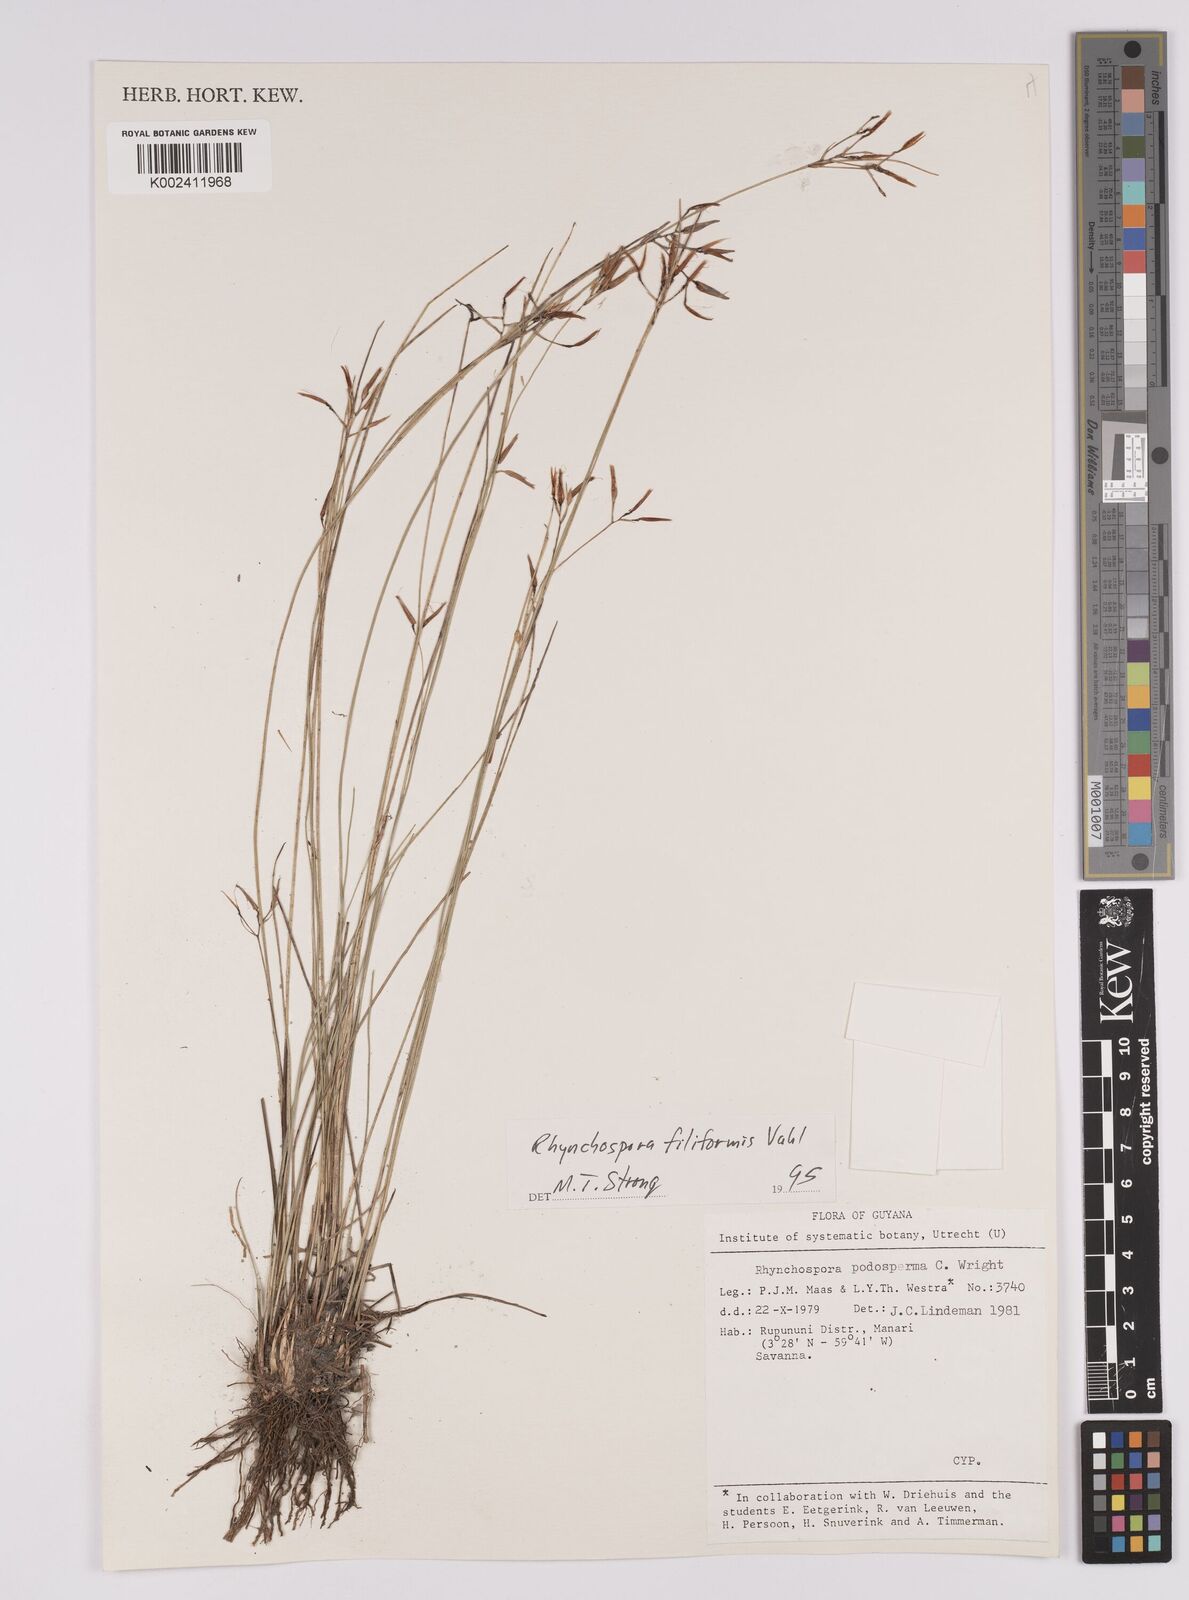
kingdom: Plantae
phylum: Tracheophyta
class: Liliopsida
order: Poales
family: Cyperaceae
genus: Rhynchospora
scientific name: Rhynchospora filiformis
